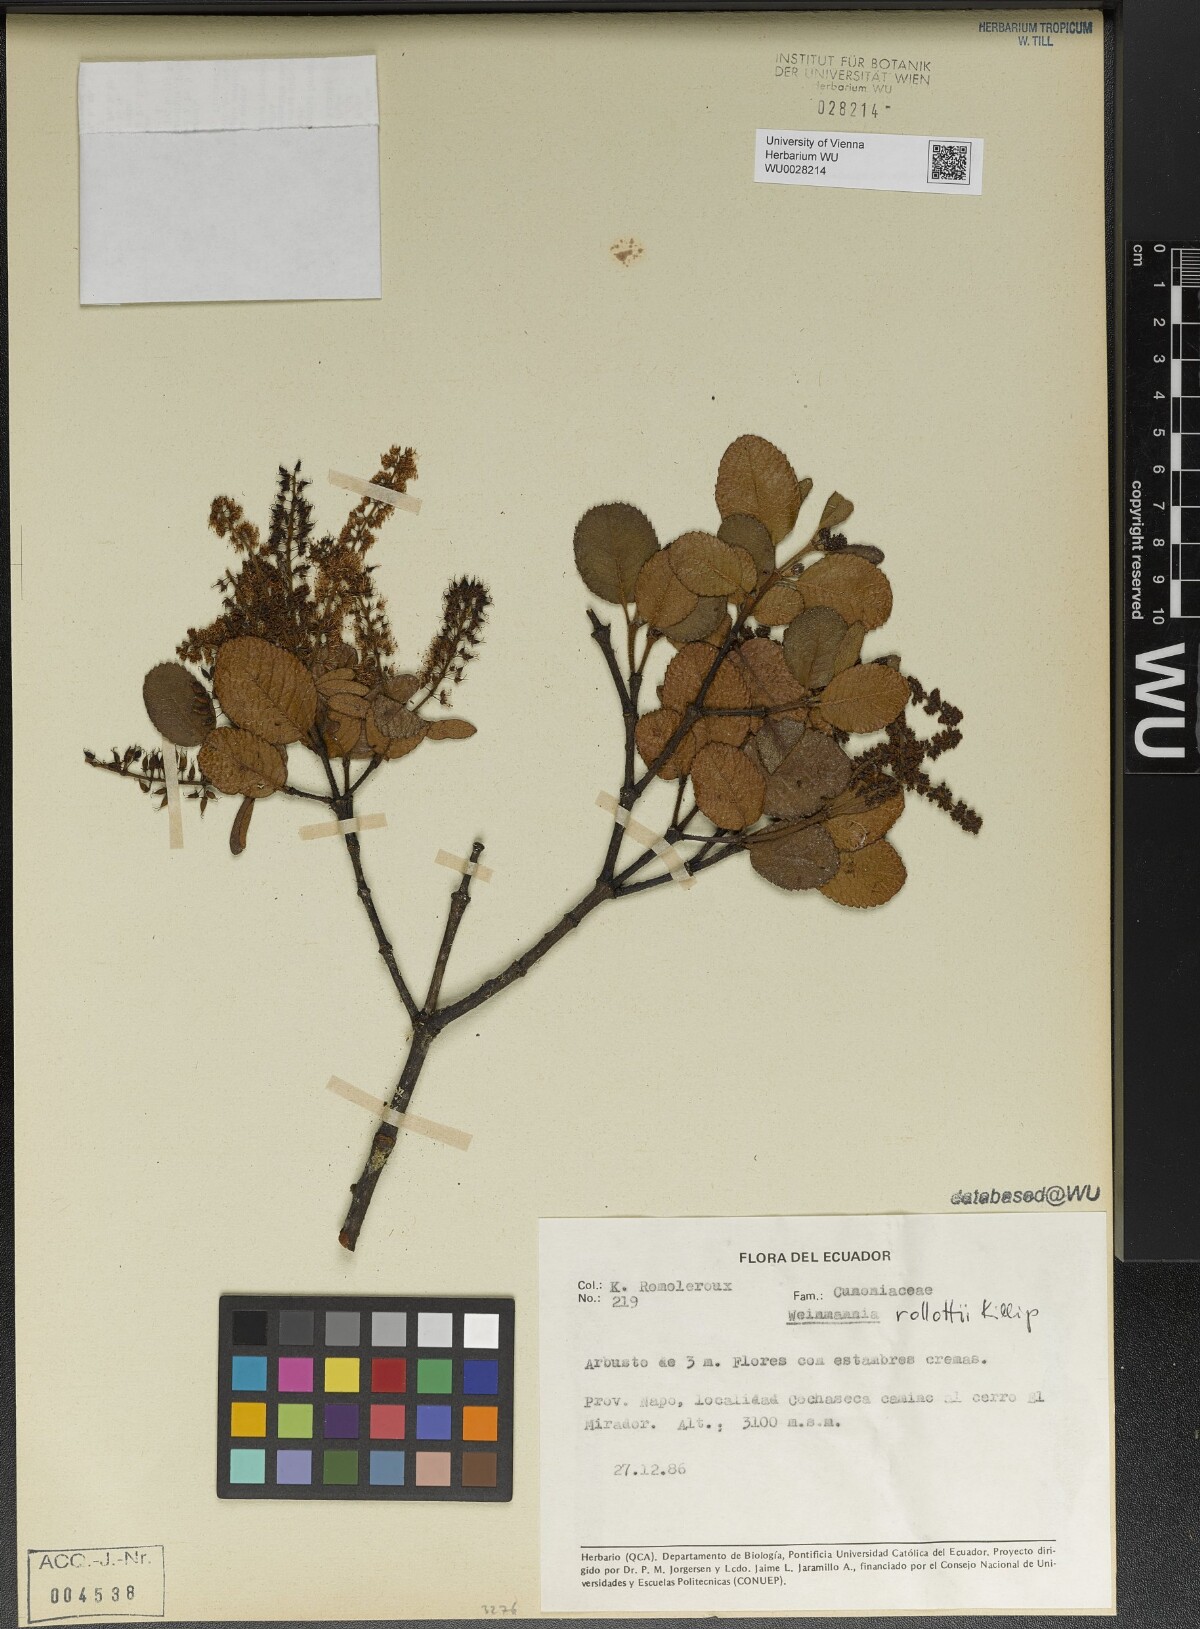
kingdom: Plantae
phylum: Tracheophyta
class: Magnoliopsida
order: Oxalidales
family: Cunoniaceae
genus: Weinmannia
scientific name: Weinmannia rollottii
